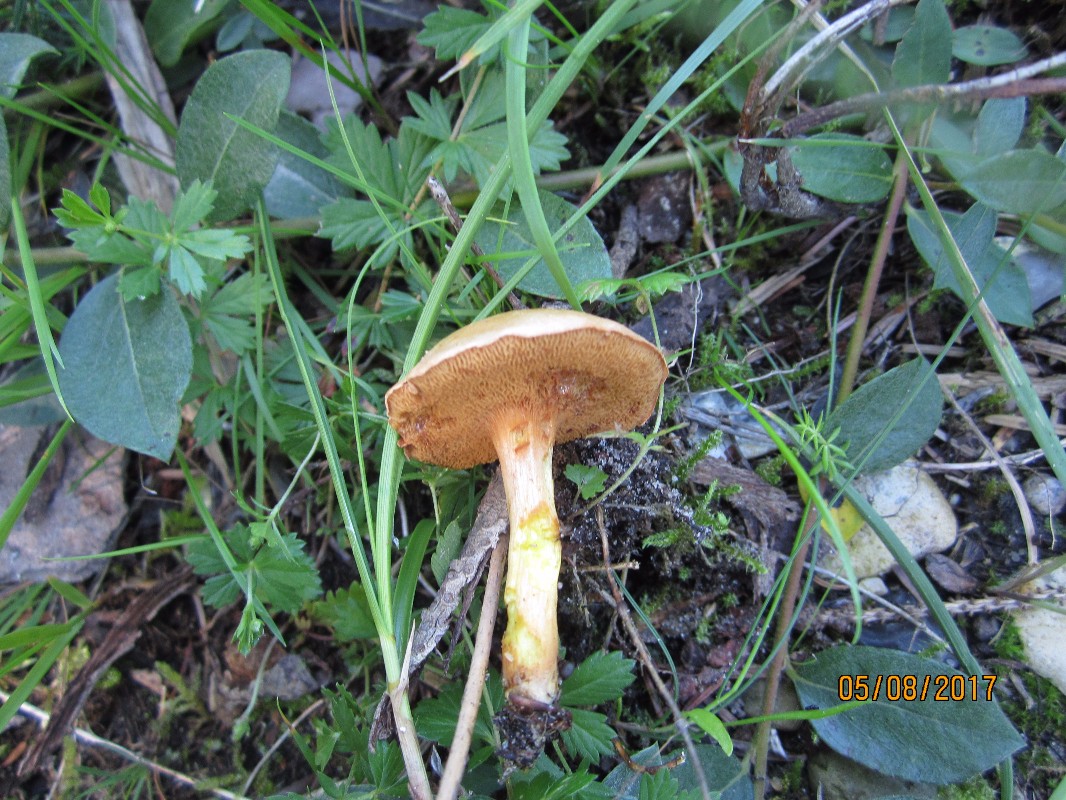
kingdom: Fungi
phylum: Basidiomycota
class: Agaricomycetes
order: Boletales
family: Boletaceae
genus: Chalciporus
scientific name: Chalciporus piperatus
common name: peberrørhat
